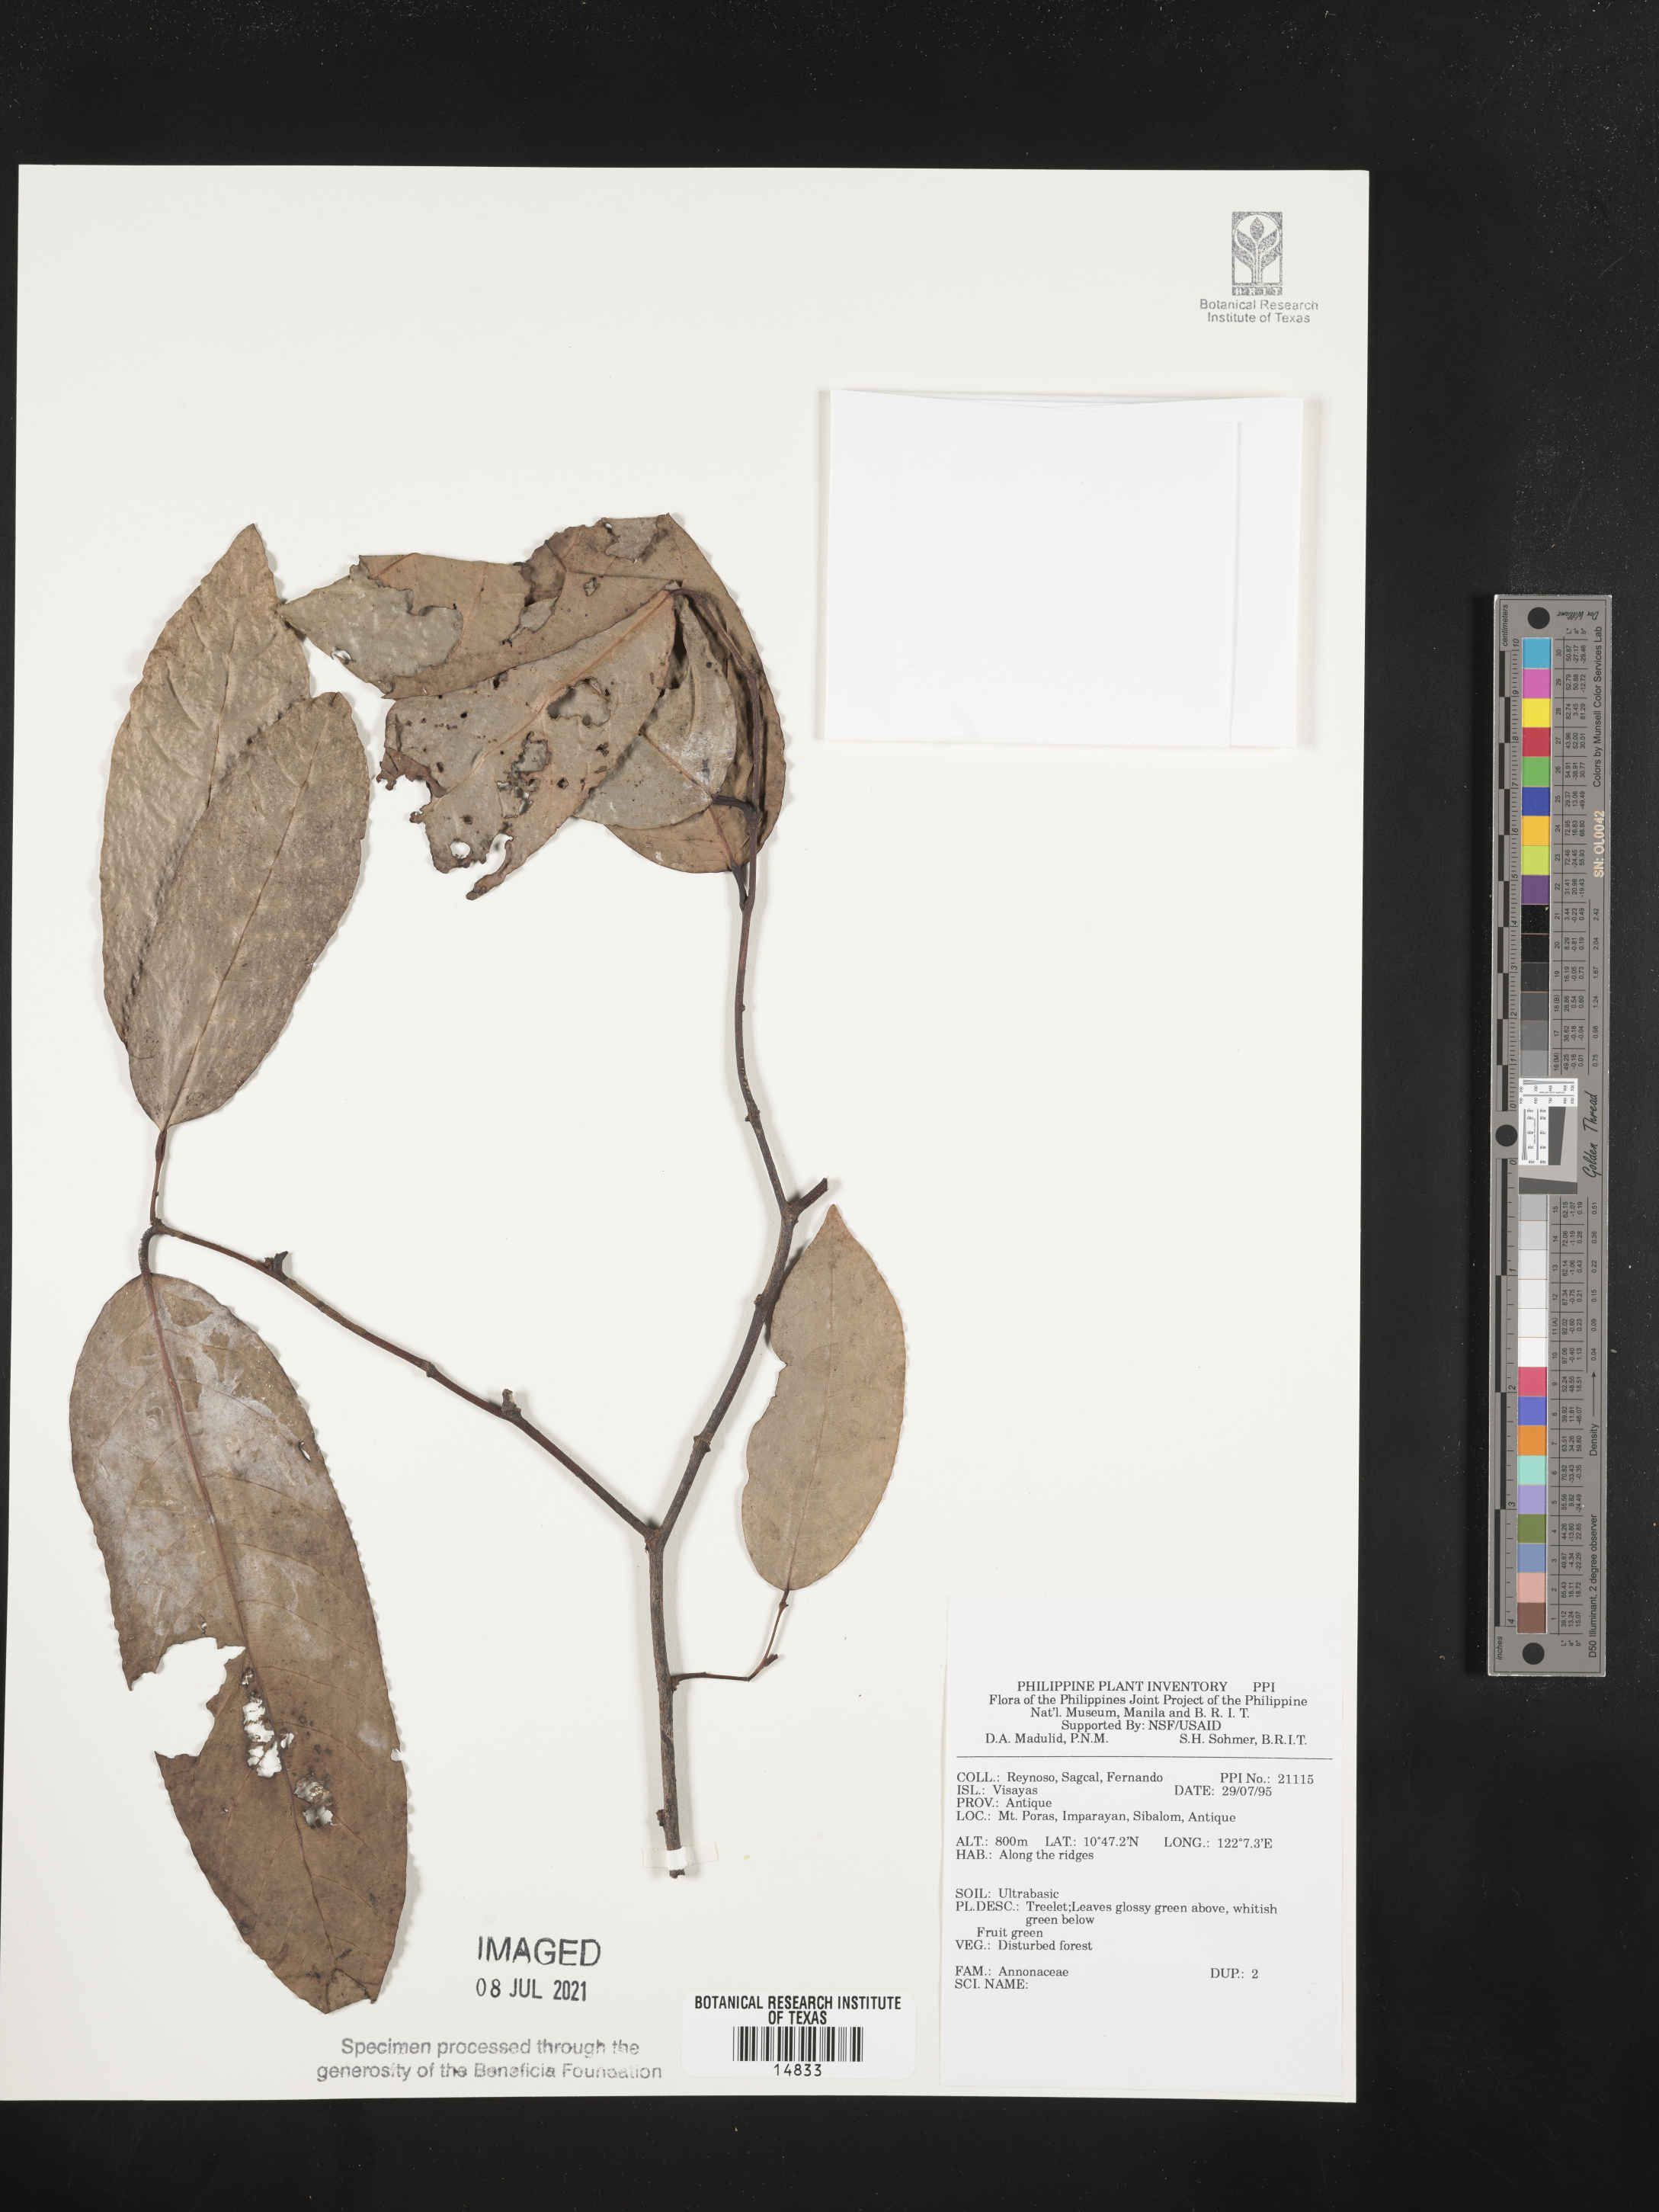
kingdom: Plantae
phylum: Tracheophyta
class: Magnoliopsida
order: Magnoliales
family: Annonaceae
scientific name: Annonaceae
